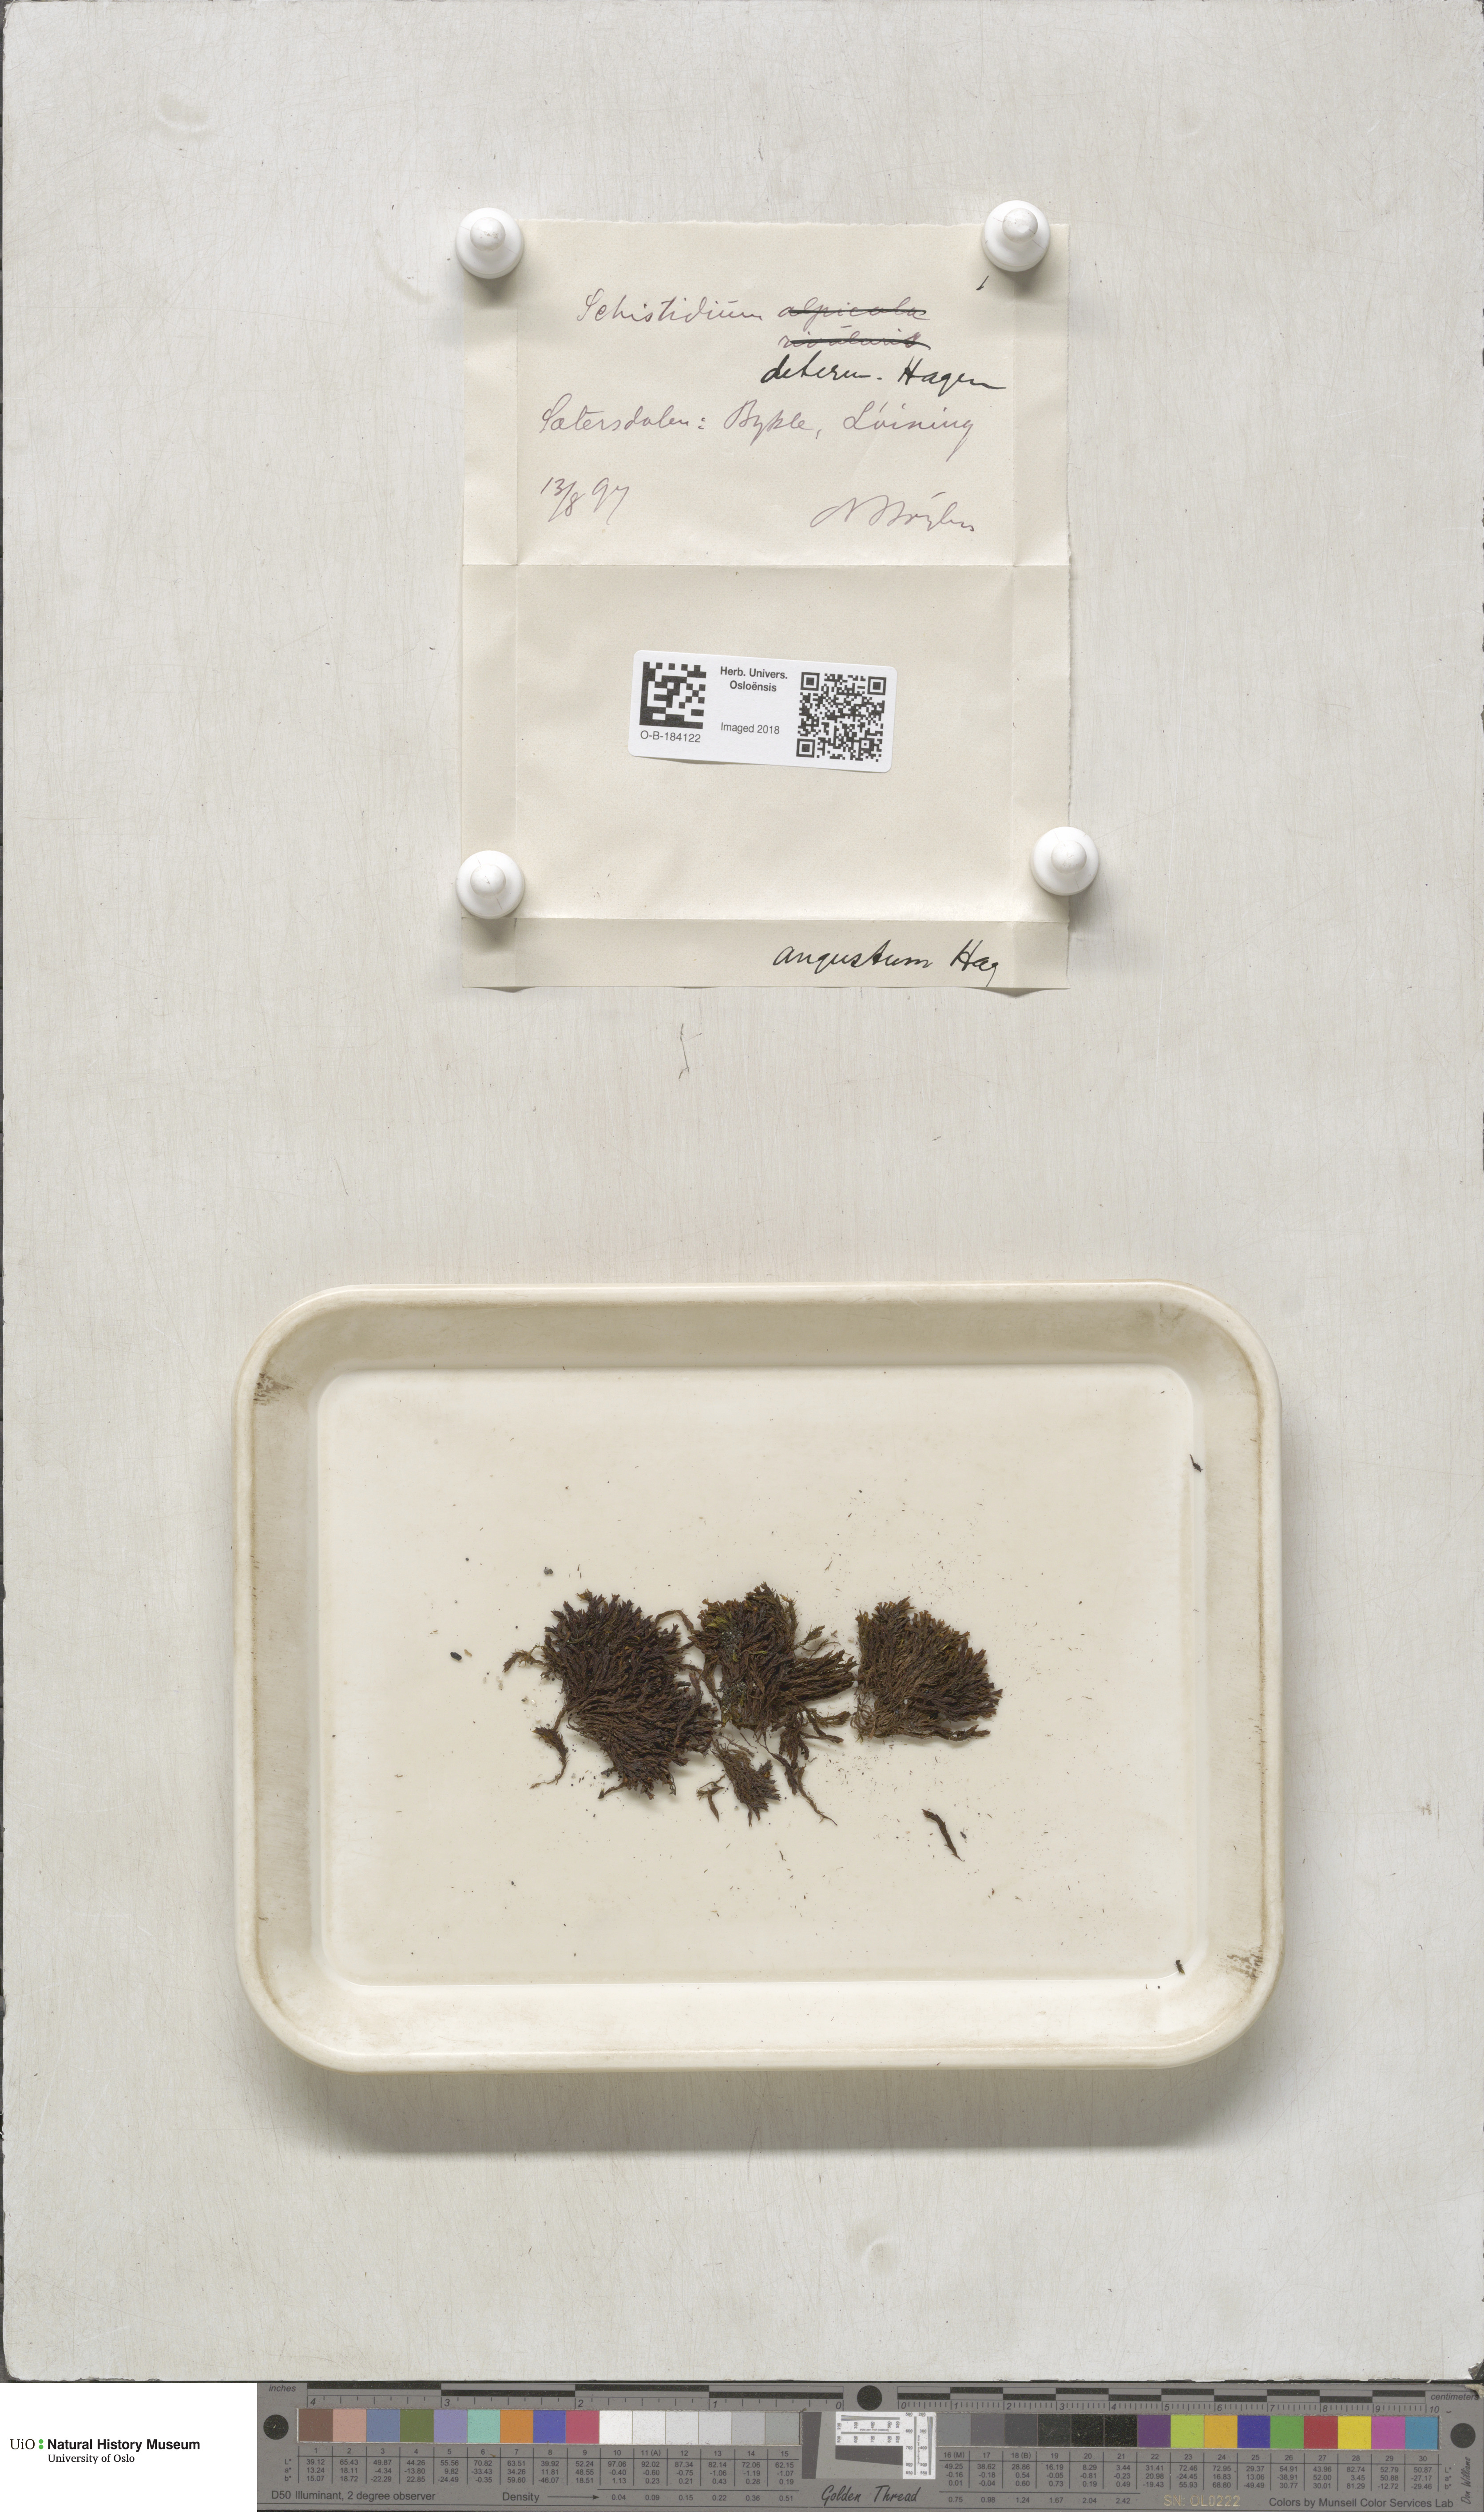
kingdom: Plantae
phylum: Bryophyta
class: Bryopsida
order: Grimmiales
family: Grimmiaceae
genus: Schistidium
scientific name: Schistidium agassizii
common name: Agassiz's bloom moss
